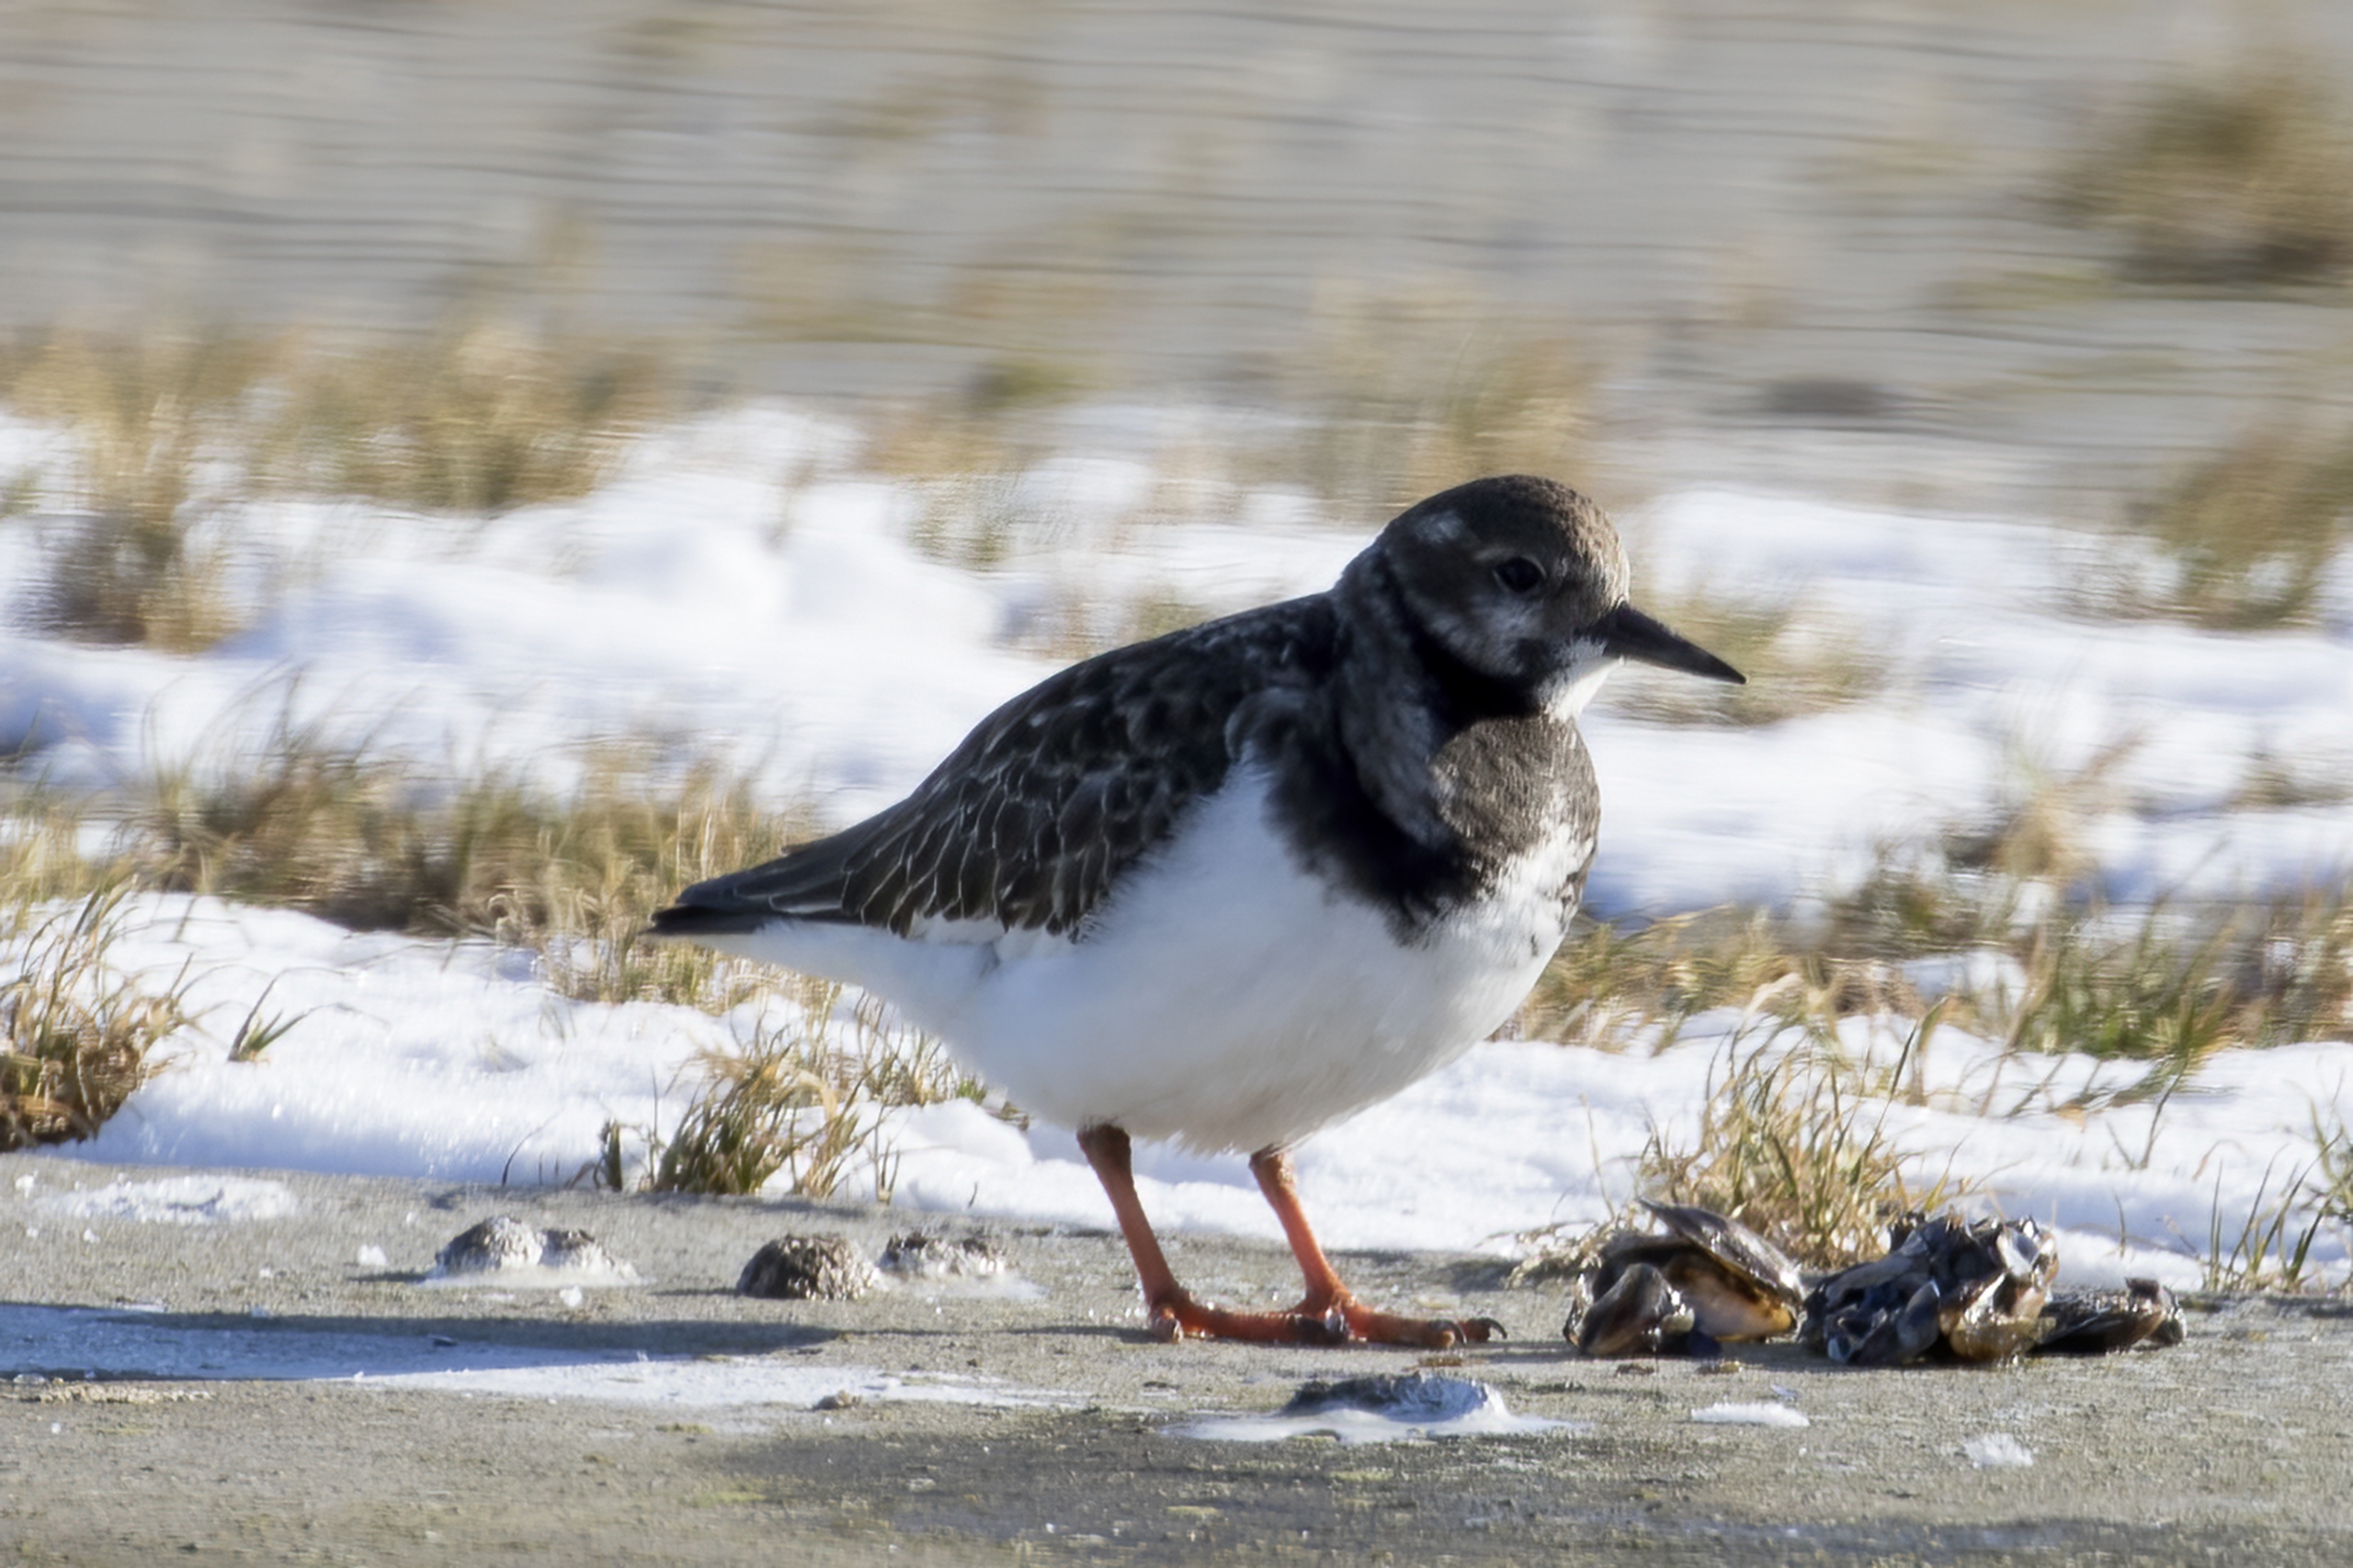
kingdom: Animalia
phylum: Chordata
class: Aves
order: Charadriiformes
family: Scolopacidae
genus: Arenaria
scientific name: Arenaria interpres
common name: Stenvender
